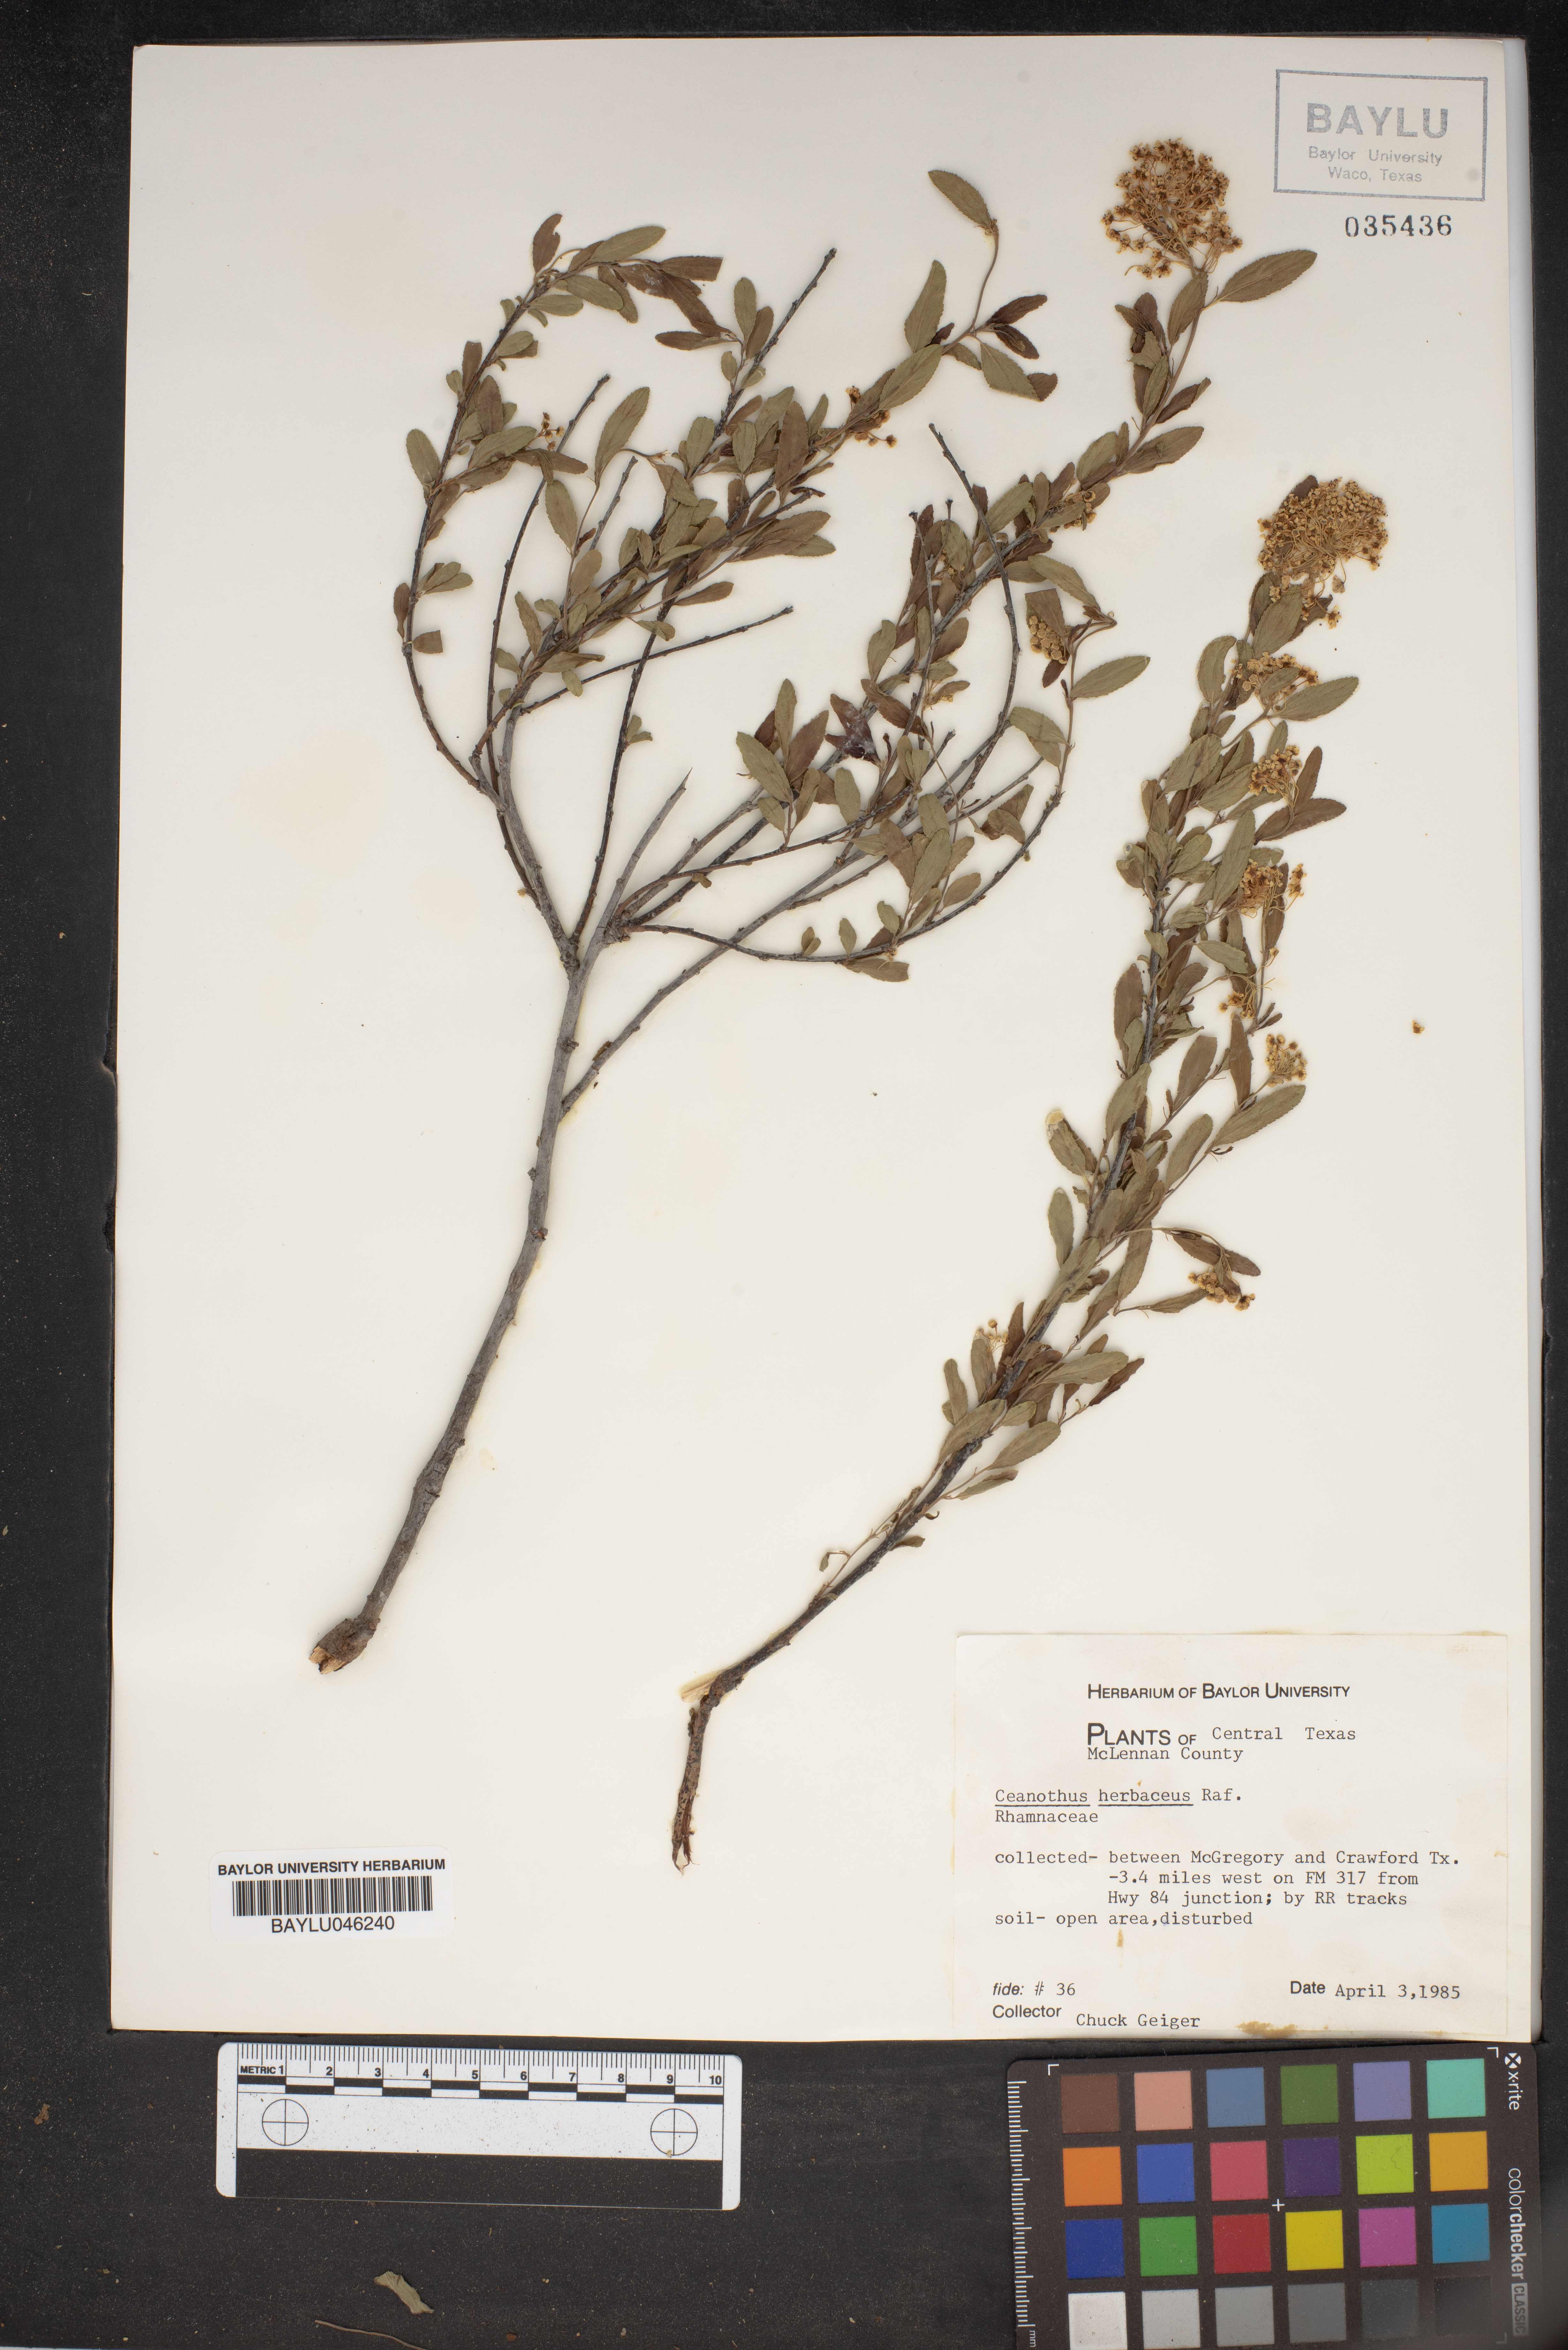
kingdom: Plantae
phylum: Tracheophyta
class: Magnoliopsida
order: Rosales
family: Rhamnaceae
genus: Ceanothus
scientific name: Ceanothus herbaceus
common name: Inland ceanothus
